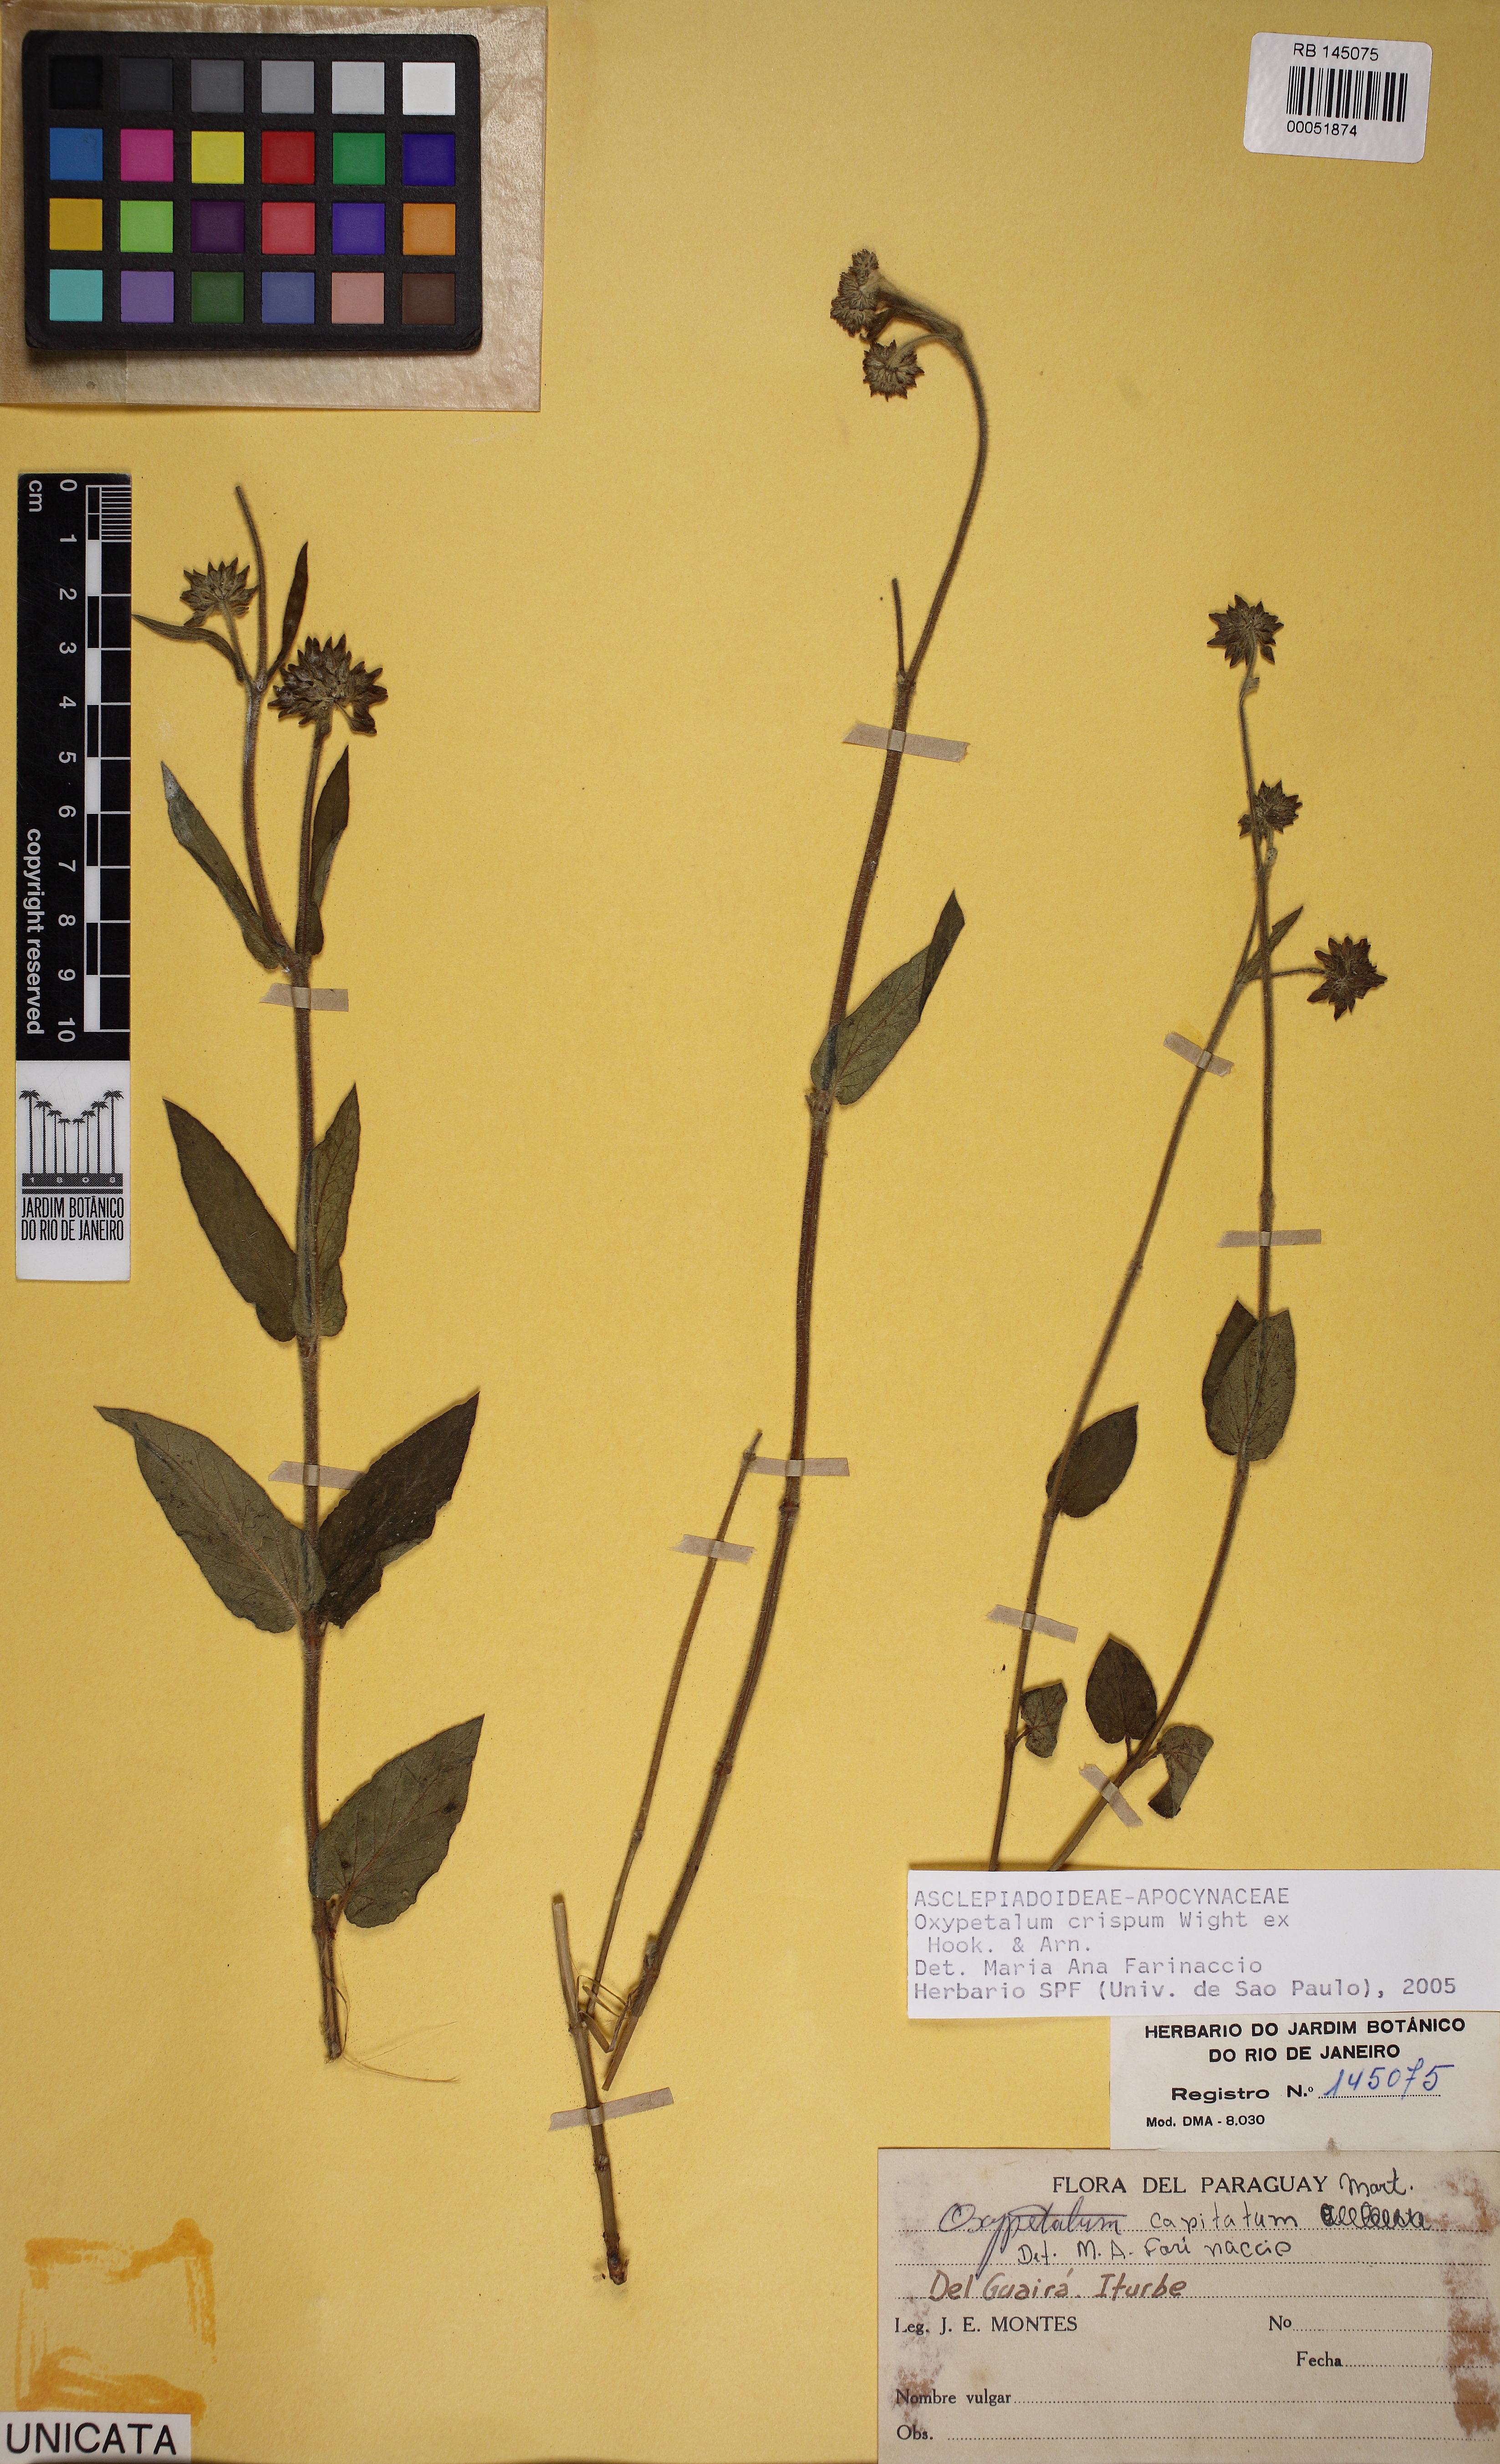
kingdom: Plantae
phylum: Tracheophyta
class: Magnoliopsida
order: Gentianales
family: Apocynaceae
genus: Oxypetalum
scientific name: Oxypetalum crispum
